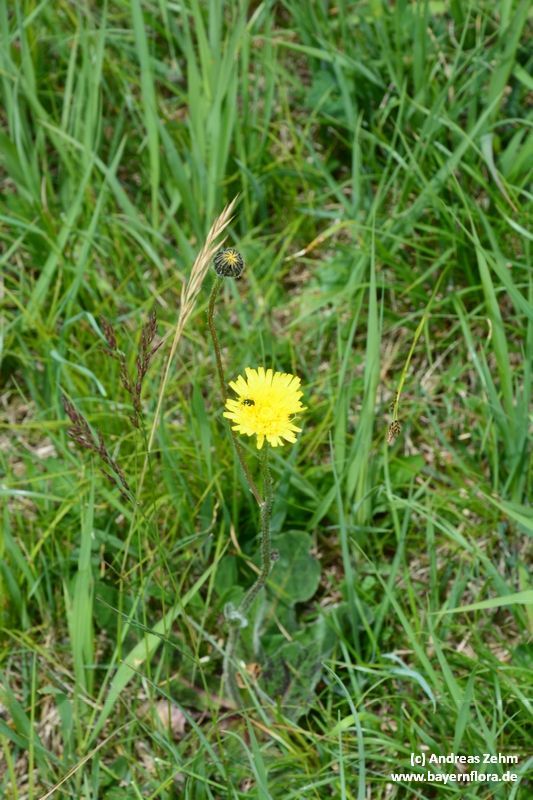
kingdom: Plantae
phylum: Tracheophyta
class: Magnoliopsida
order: Asterales
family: Asteraceae
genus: Trommsdorffia
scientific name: Trommsdorffia maculata
